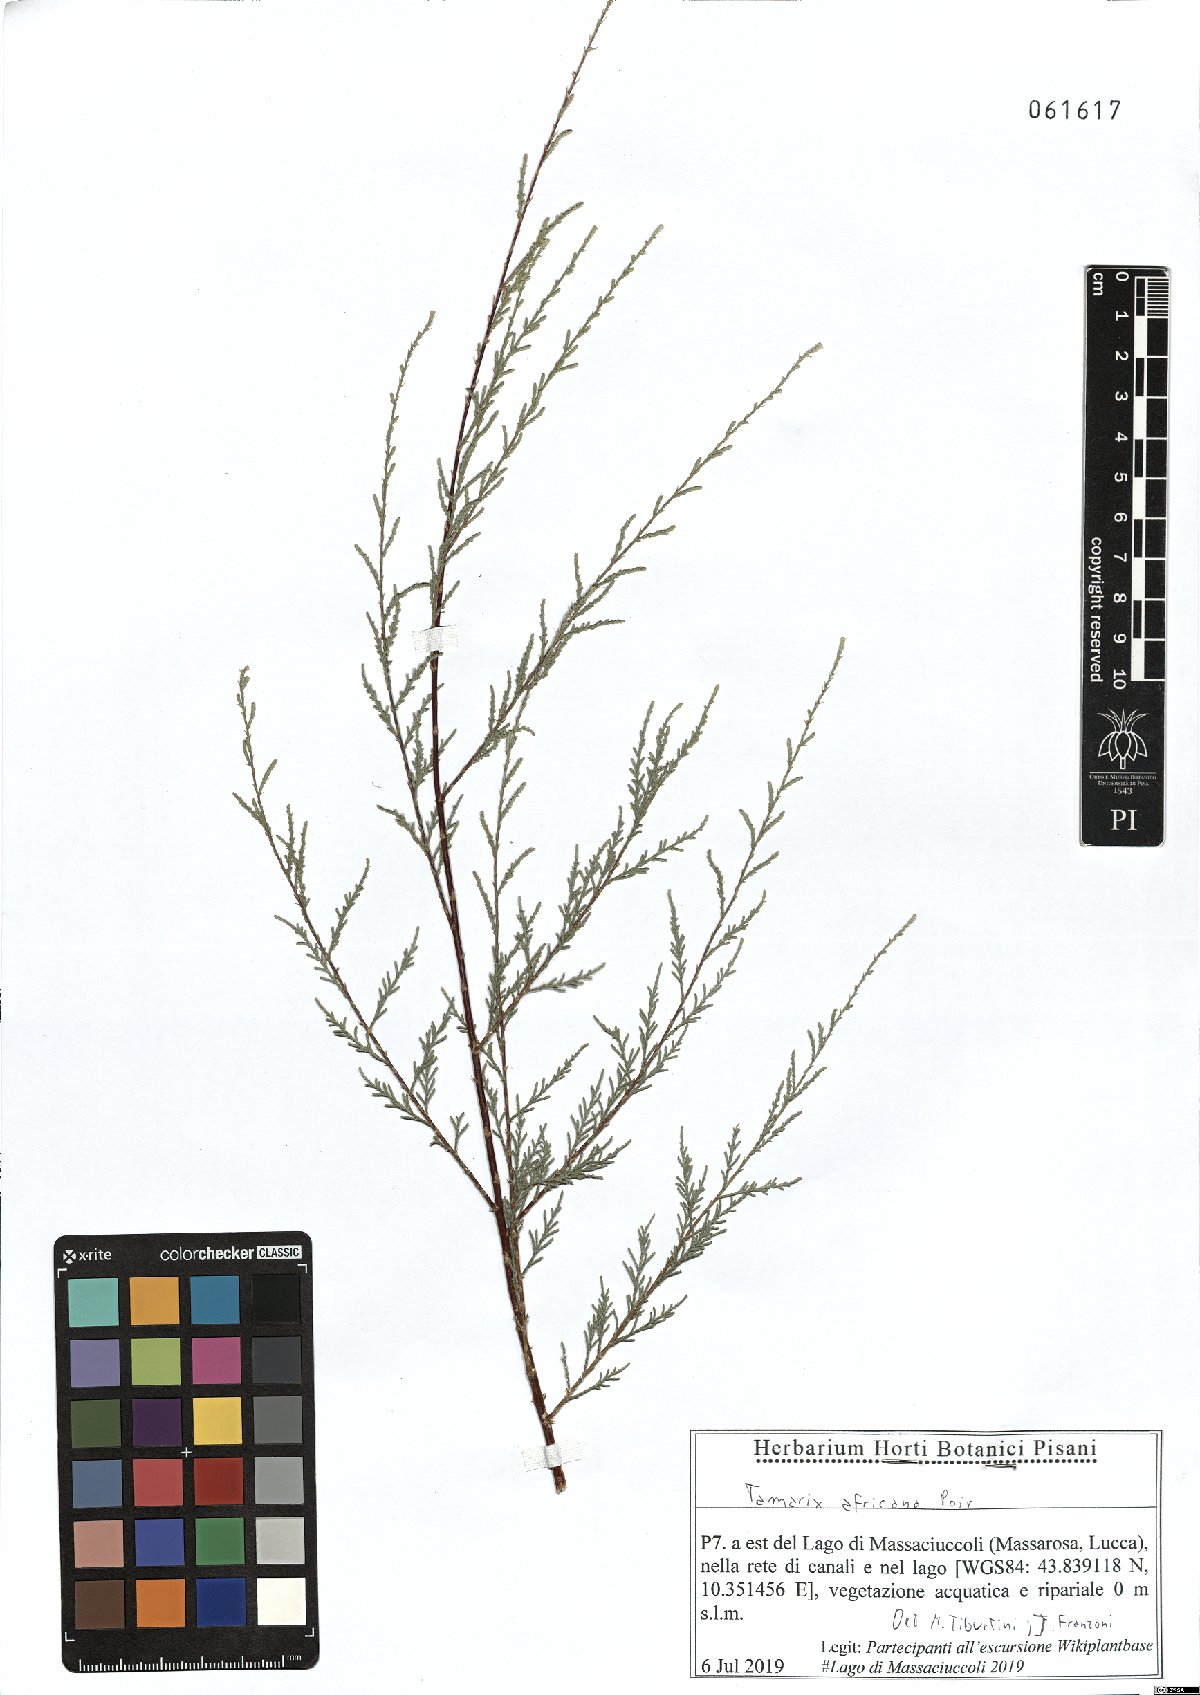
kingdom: Plantae
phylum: Tracheophyta
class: Magnoliopsida
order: Caryophyllales
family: Tamaricaceae
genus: Tamarix
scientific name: Tamarix africana
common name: African tamarisk
